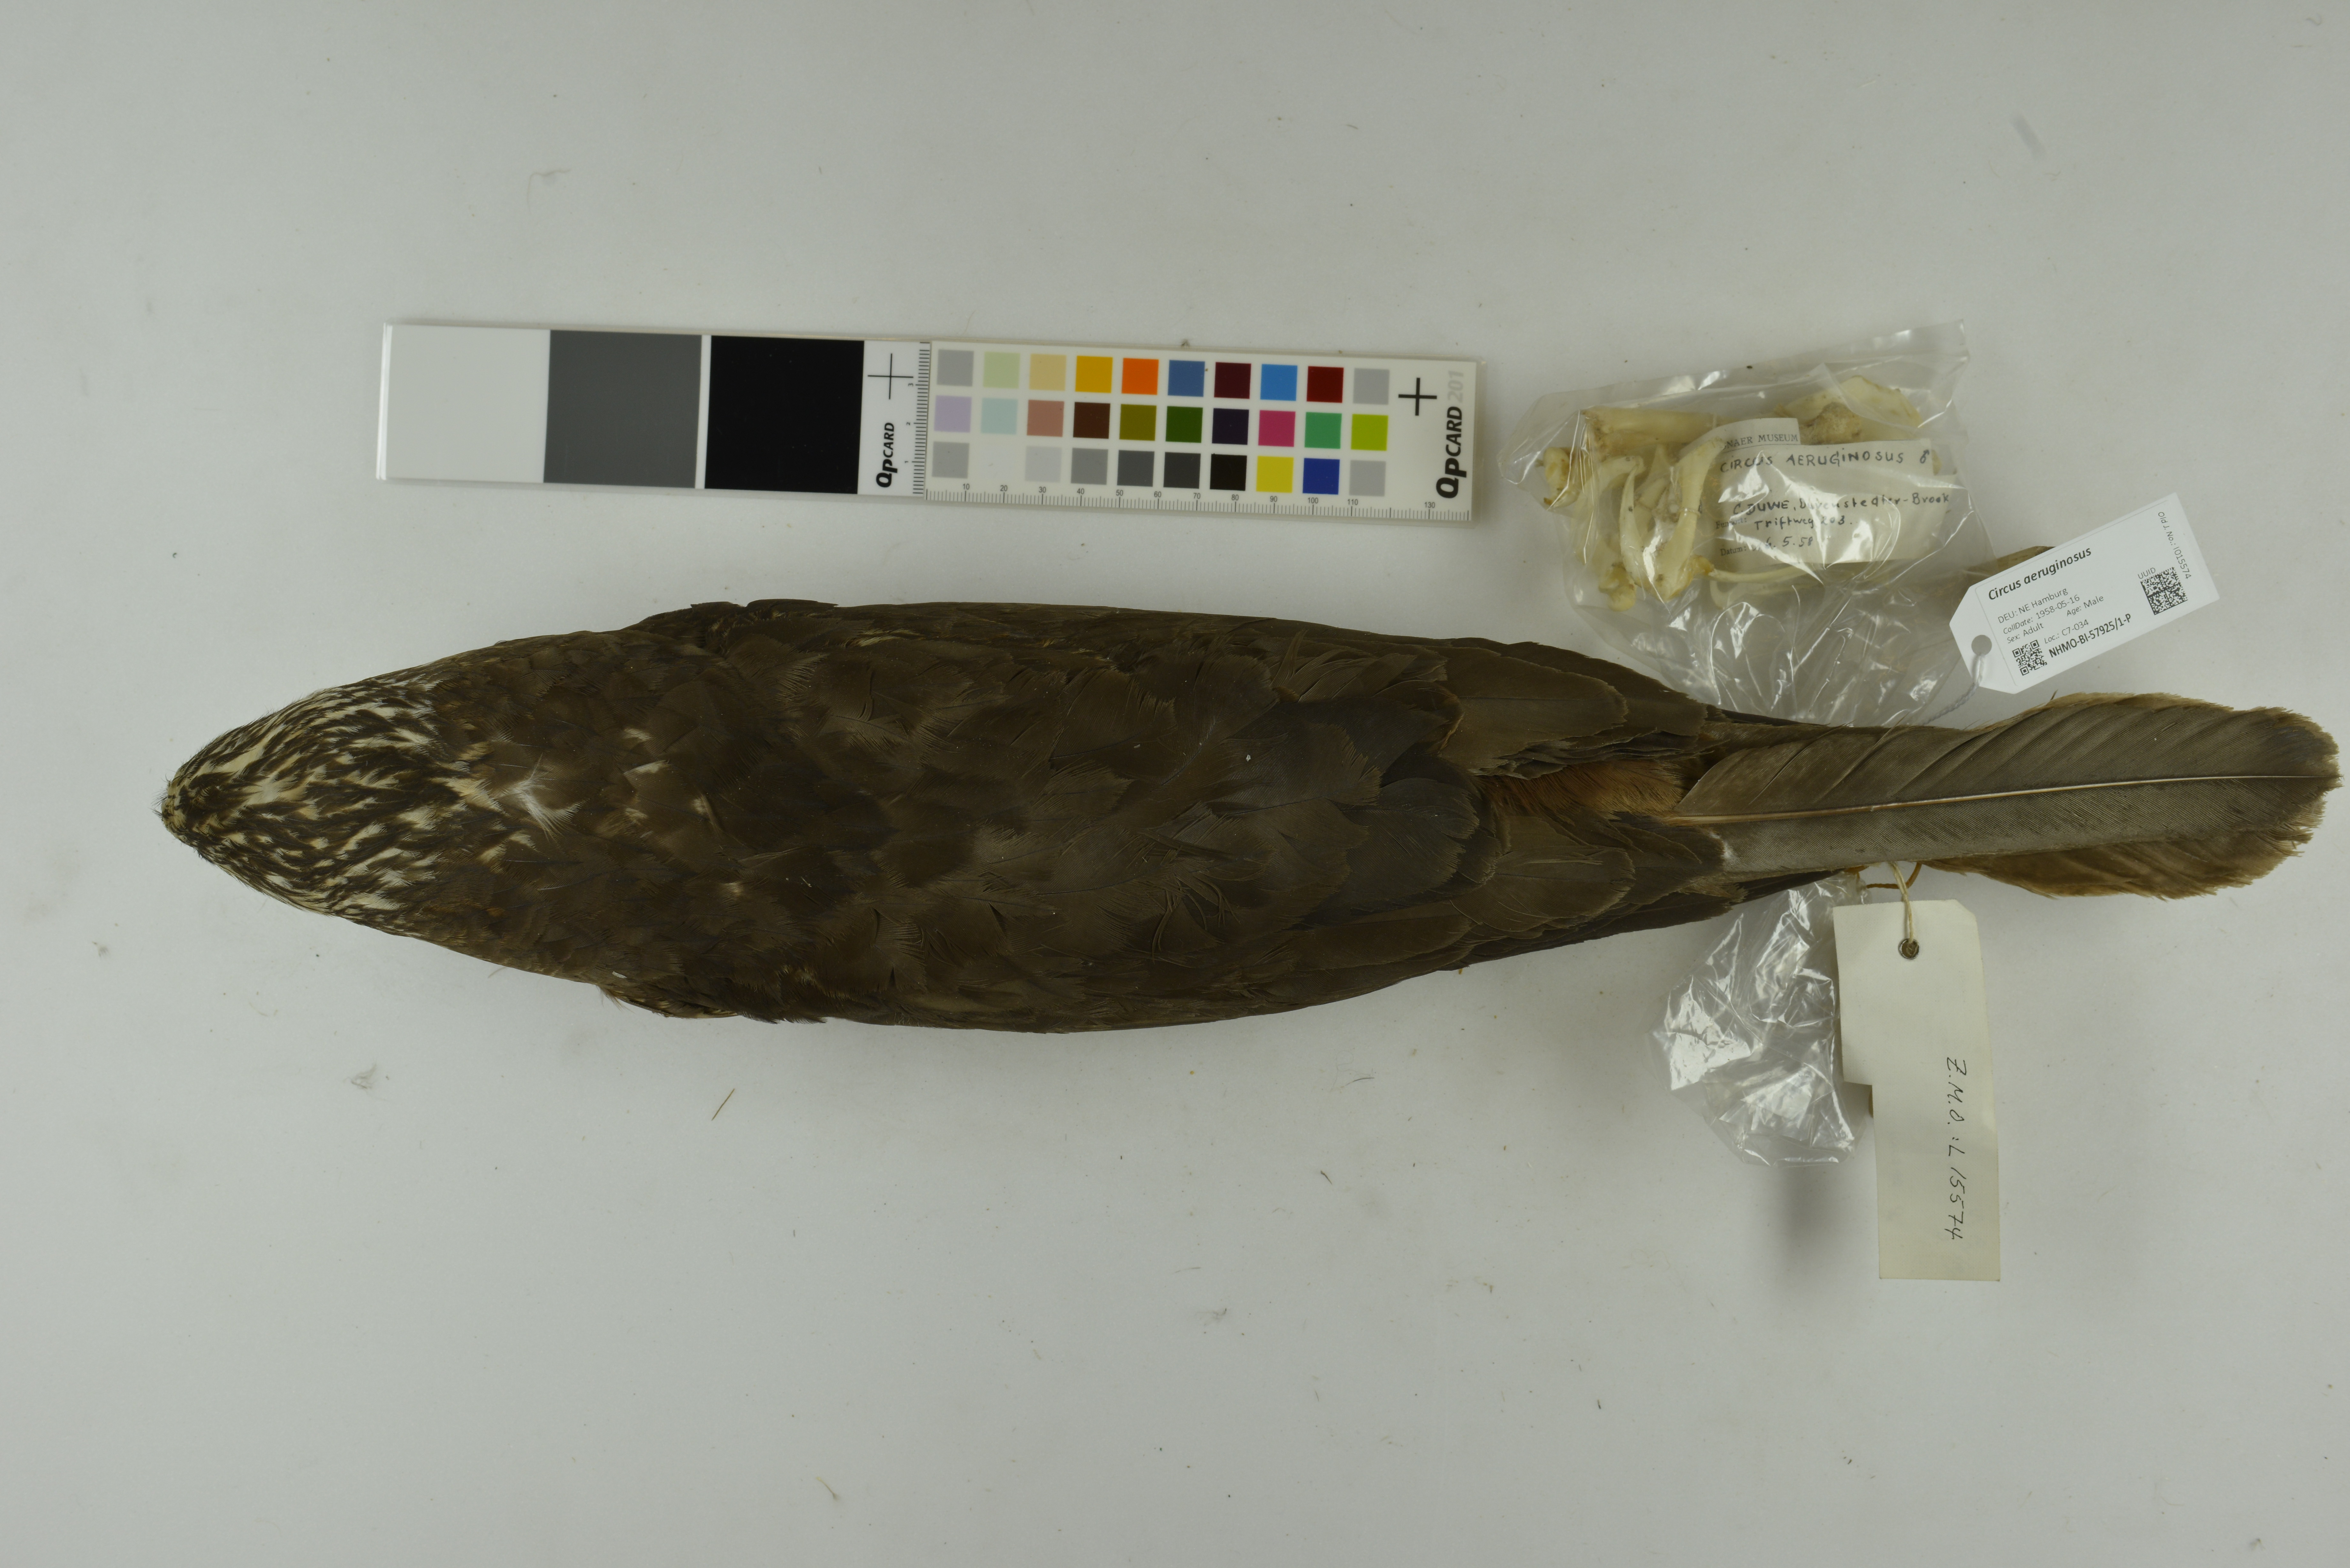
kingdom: Animalia
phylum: Chordata
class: Aves
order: Accipitriformes
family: Accipitridae
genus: Circus
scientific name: Circus aeruginosus
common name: Western marsh harrier
